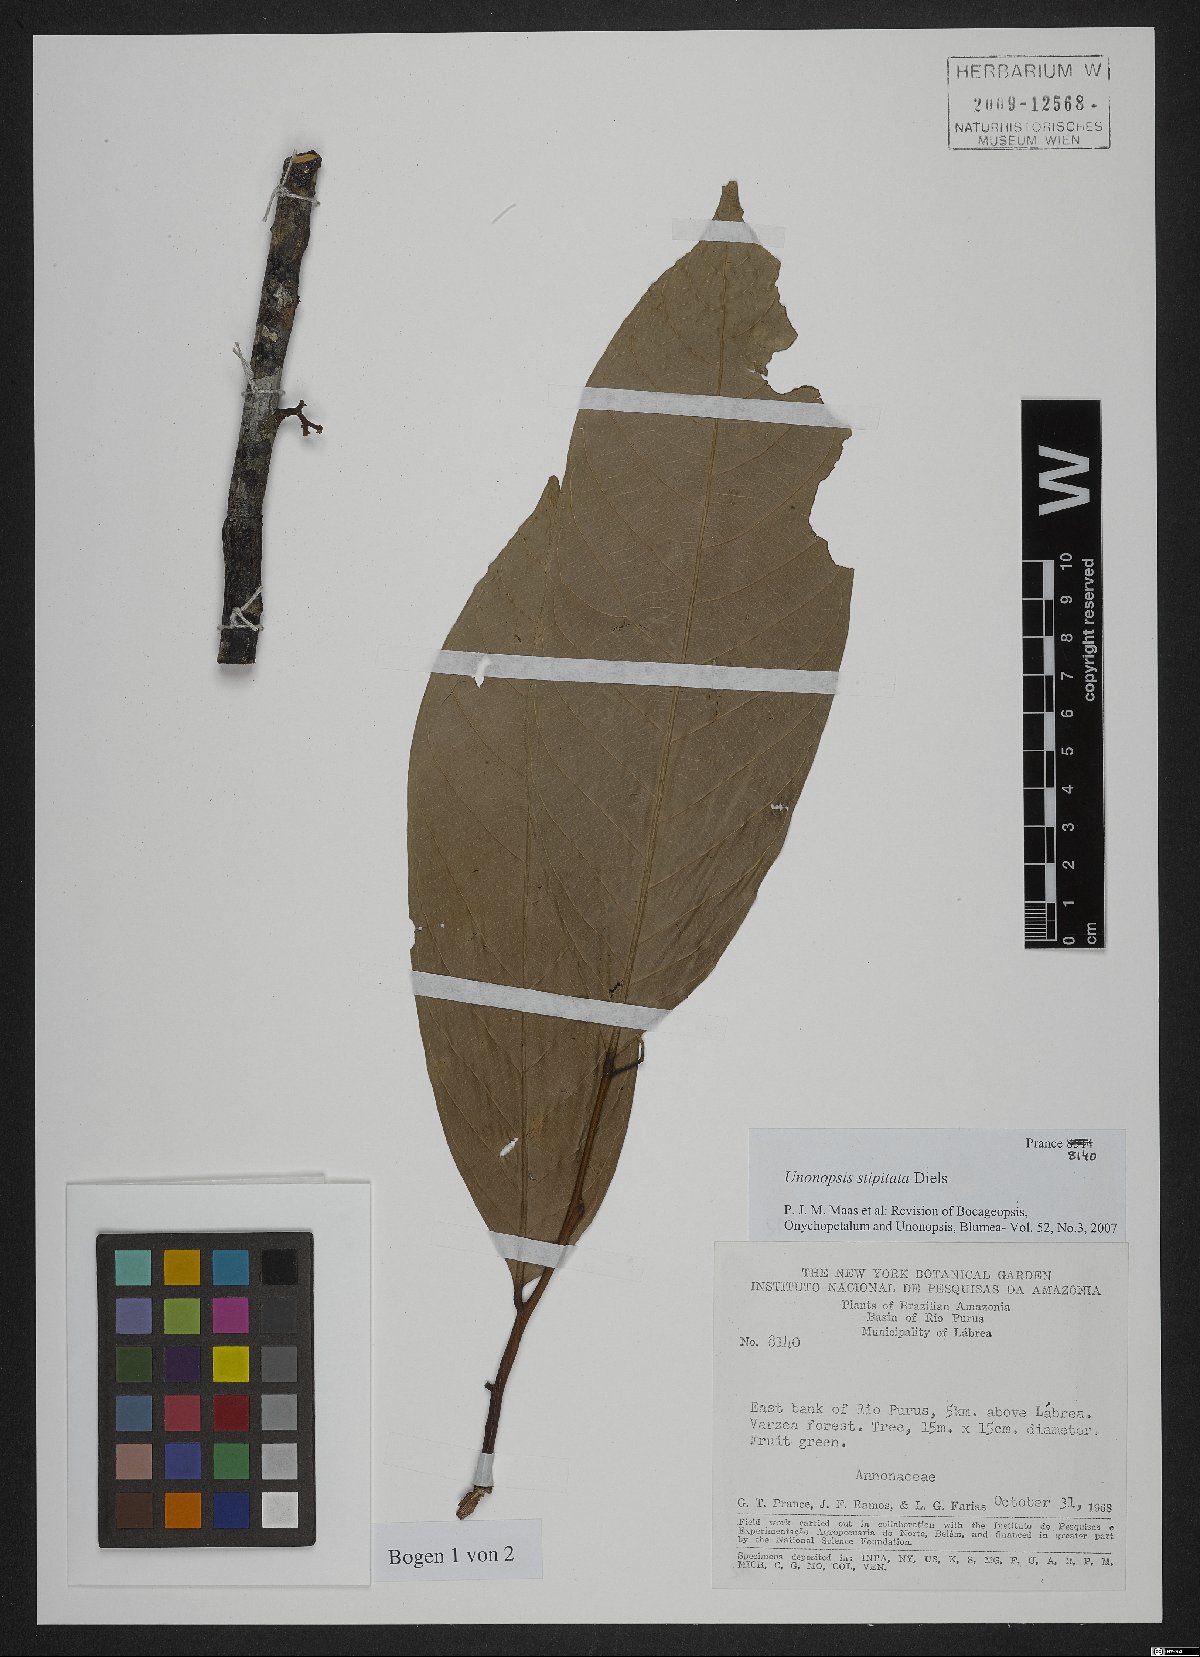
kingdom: Plantae
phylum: Tracheophyta
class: Magnoliopsida
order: Magnoliales
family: Annonaceae
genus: Unonopsis
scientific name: Unonopsis stipitata
